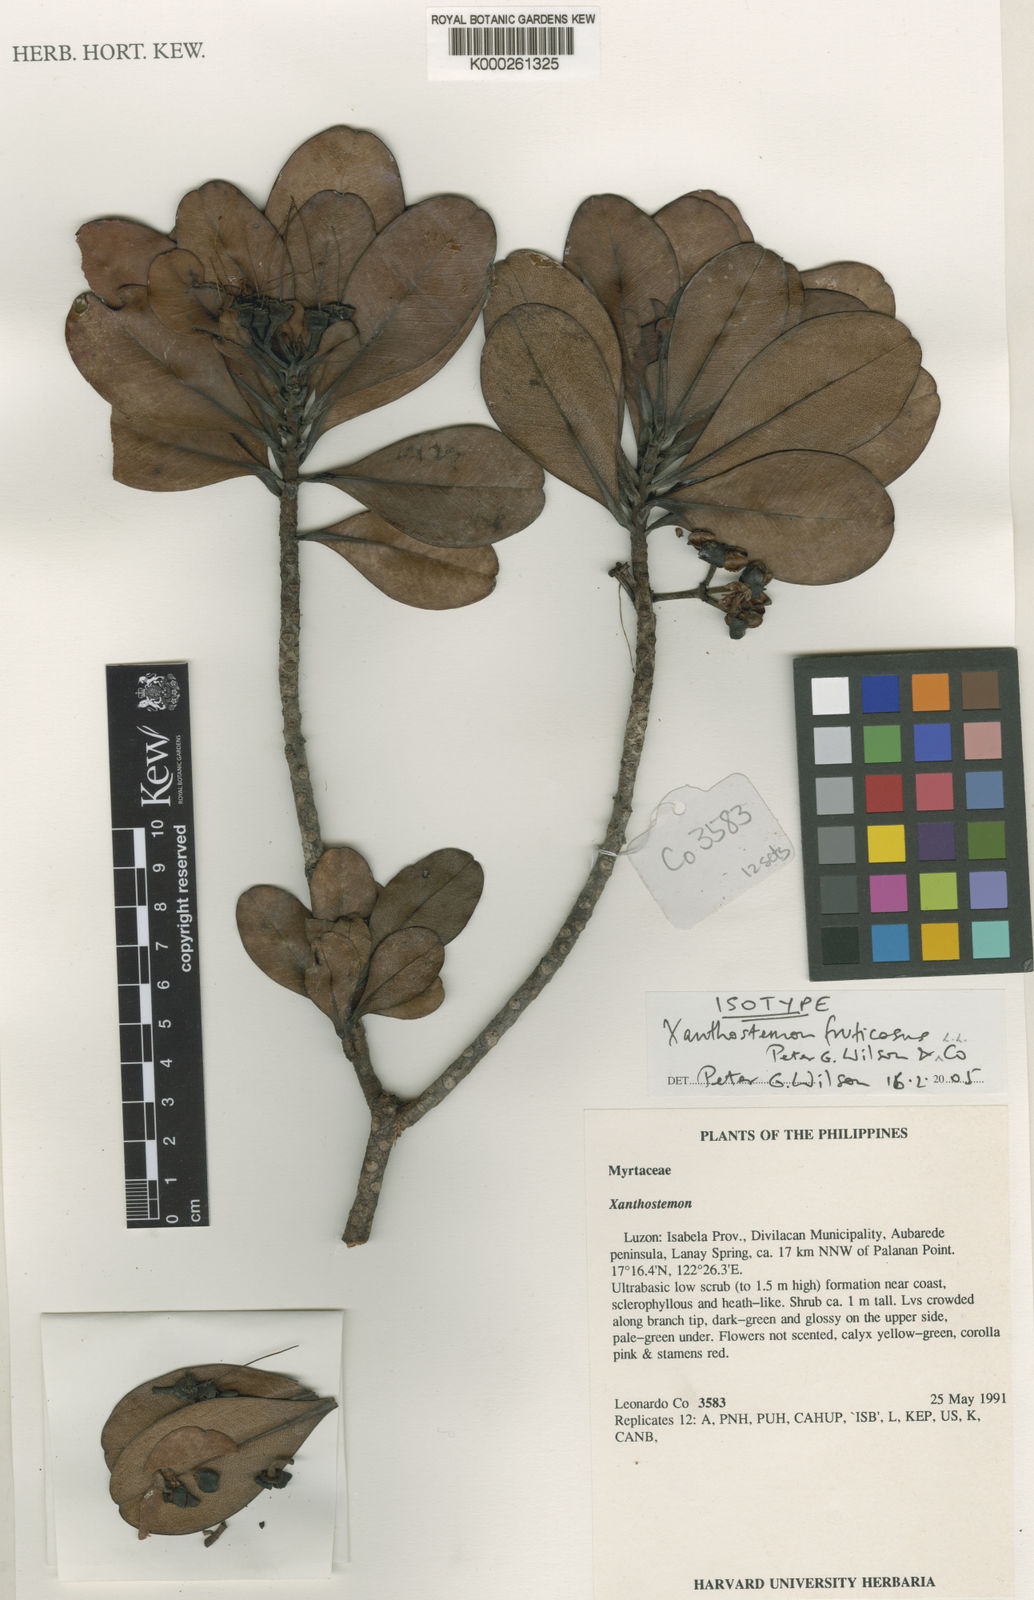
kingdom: Plantae
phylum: Tracheophyta
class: Magnoliopsida
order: Myrtales
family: Myrtaceae
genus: Xanthostemon
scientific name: Xanthostemon
